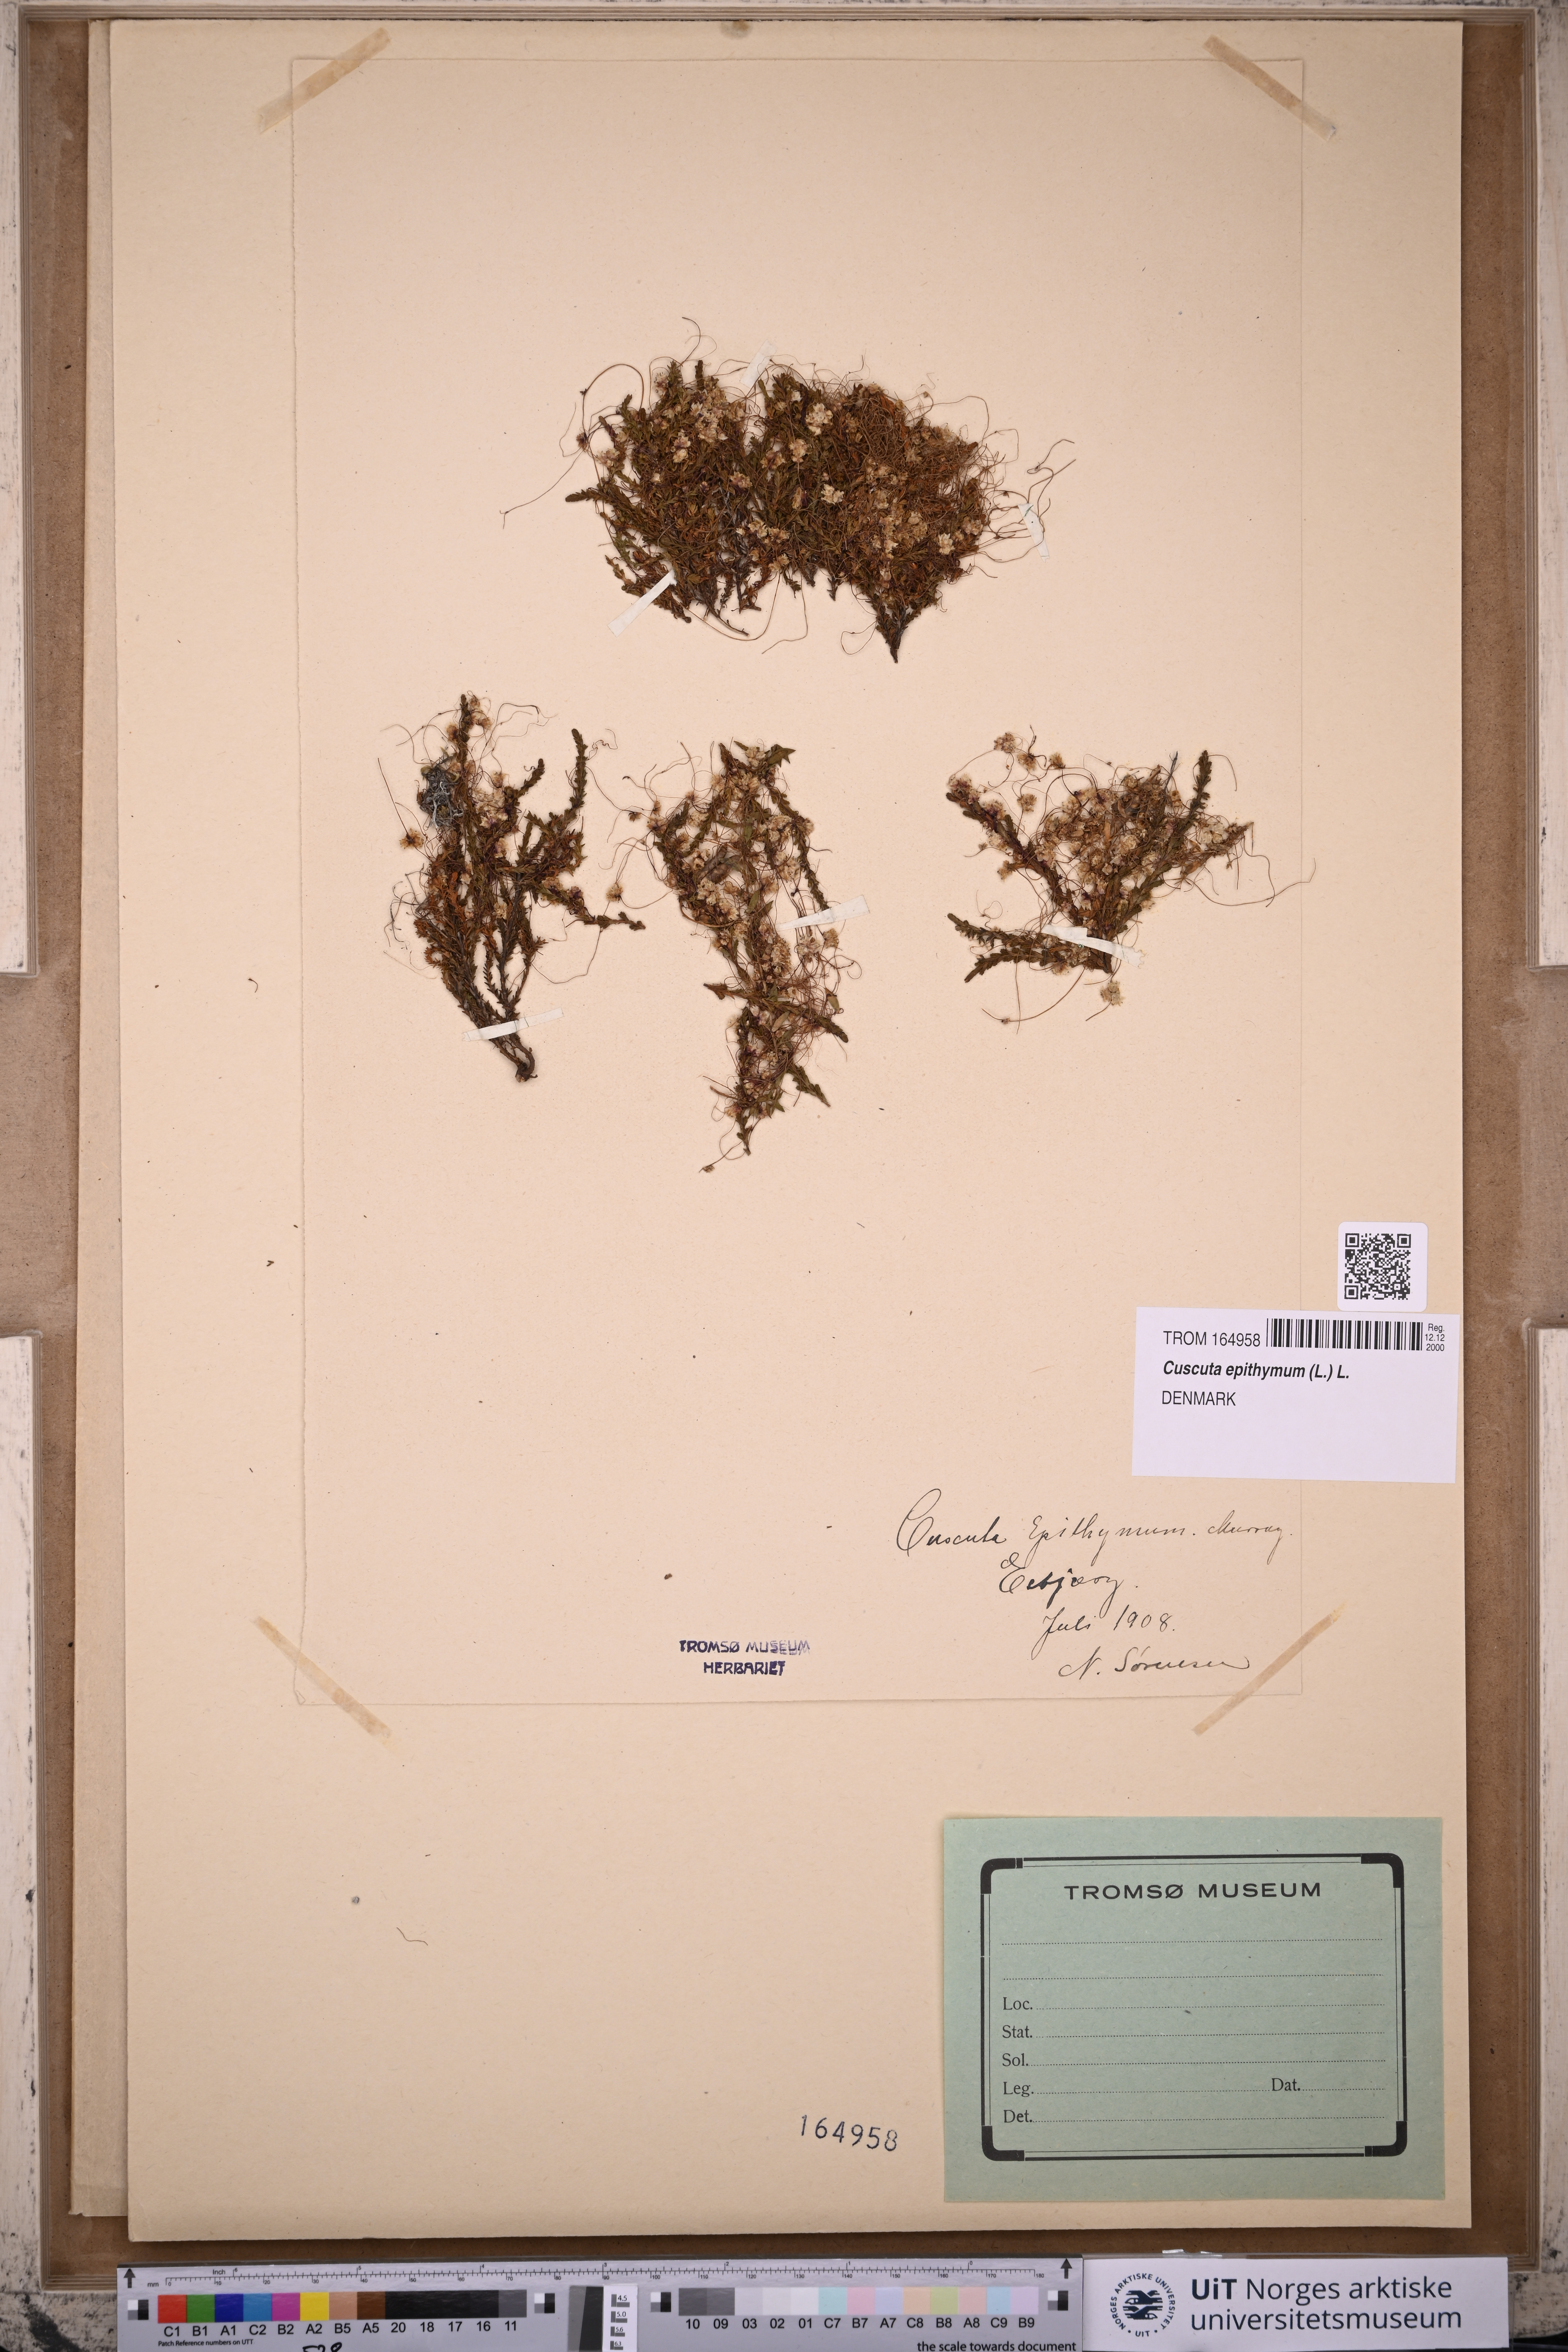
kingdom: Plantae
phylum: Tracheophyta
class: Magnoliopsida
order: Solanales
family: Convolvulaceae
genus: Cuscuta
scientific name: Cuscuta epithymum
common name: Clover dodder
